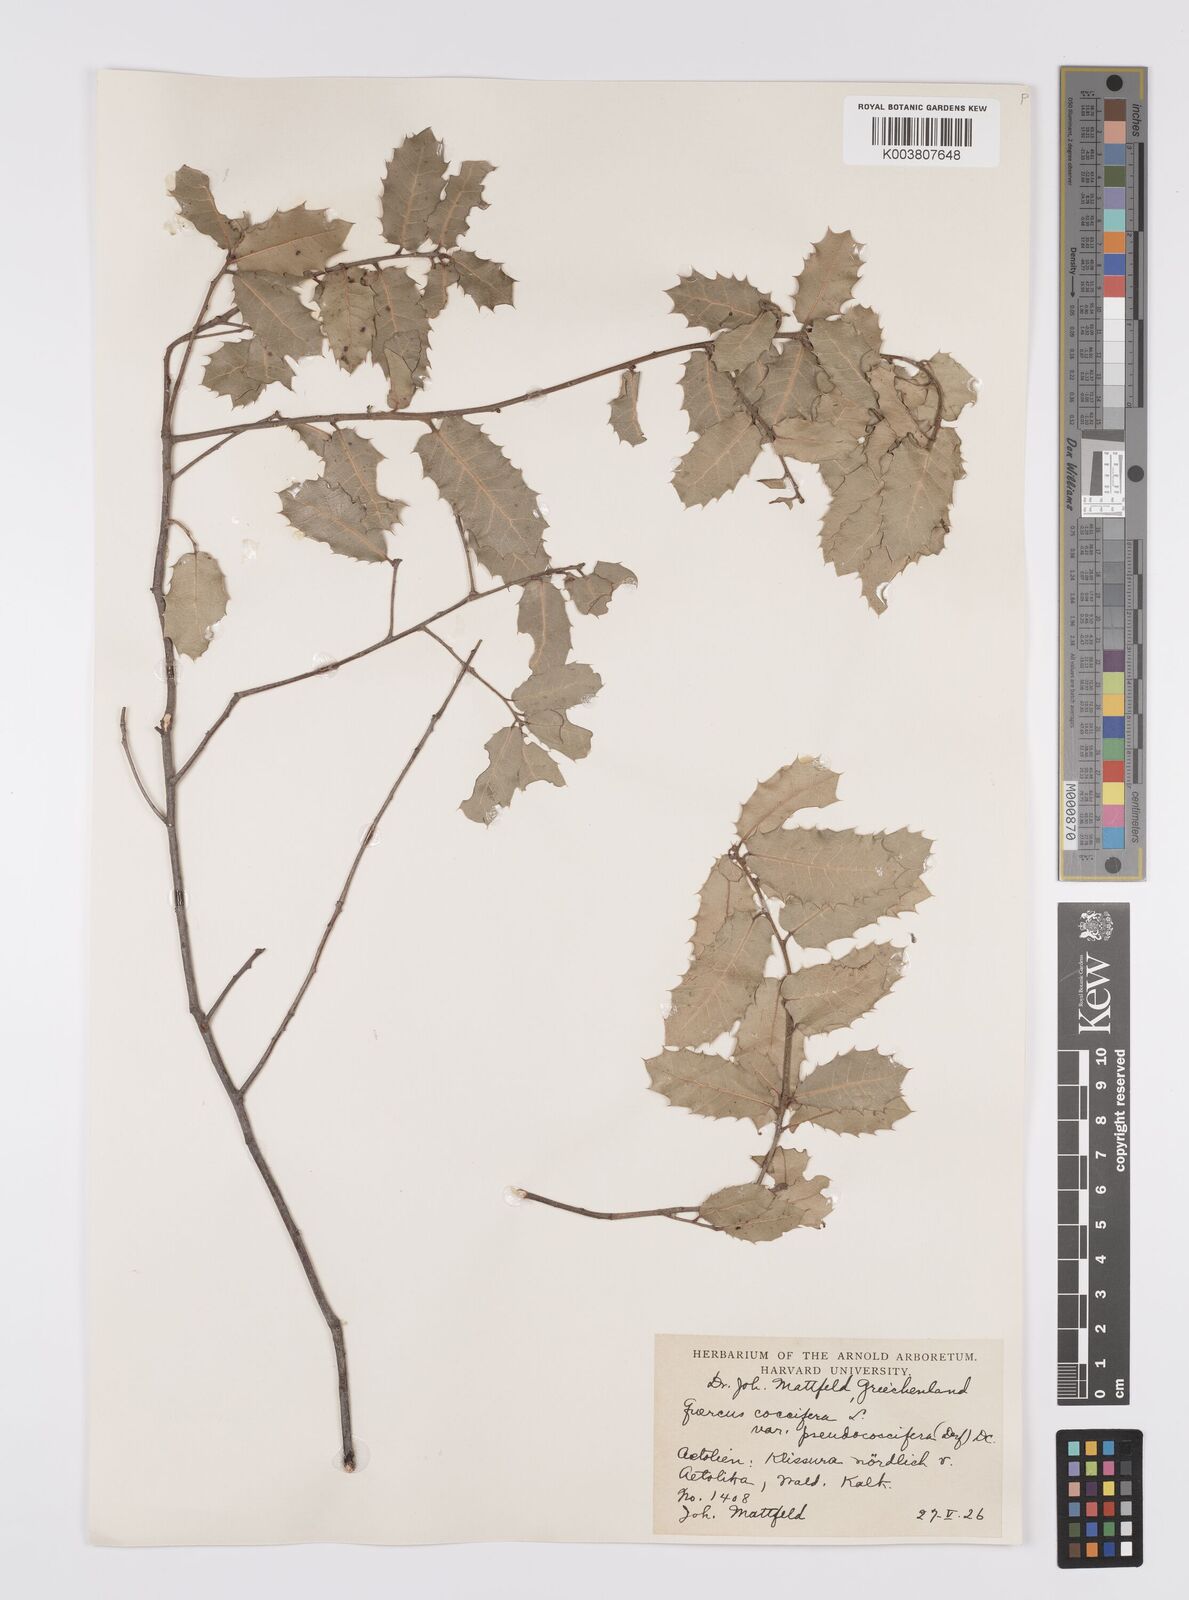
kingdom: Plantae
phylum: Tracheophyta
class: Magnoliopsida
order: Fagales
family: Fagaceae
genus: Quercus
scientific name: Quercus coccifera
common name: Kermes oak
